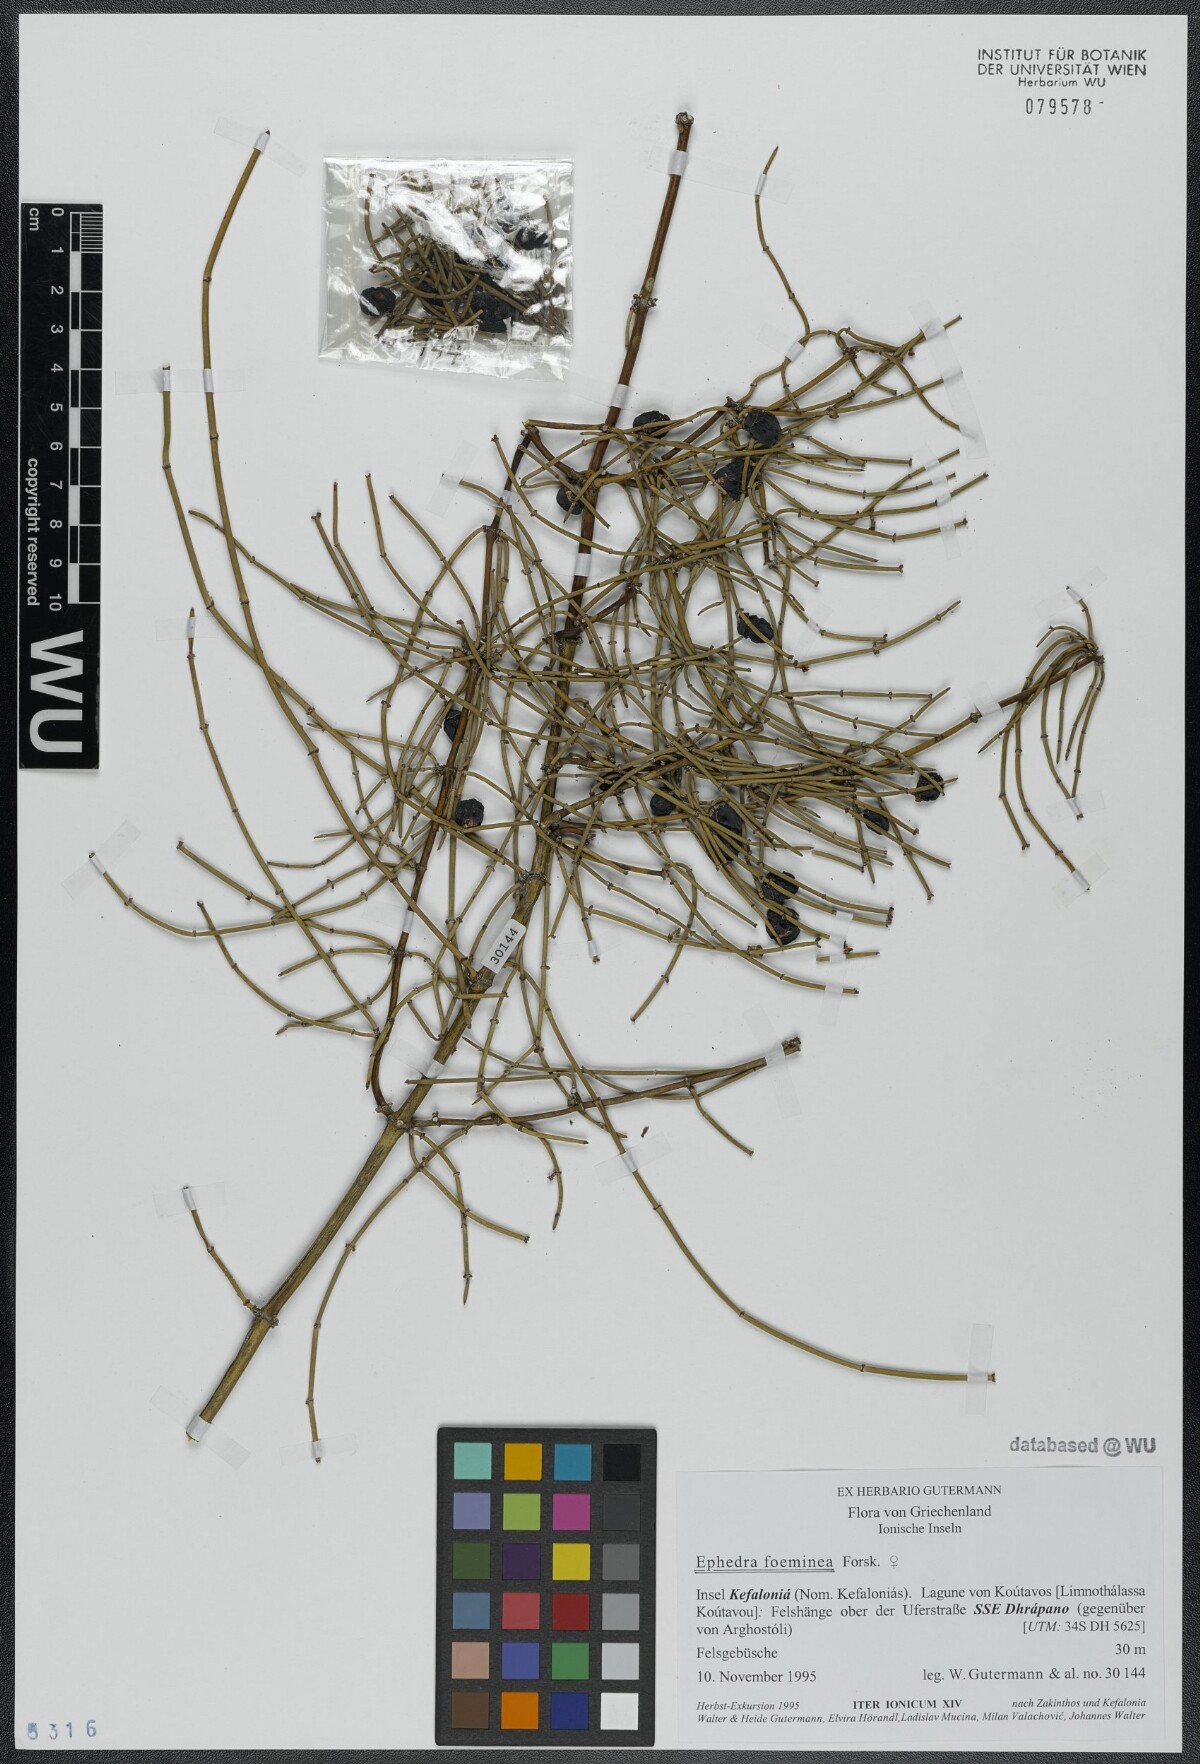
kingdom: Plantae
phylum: Tracheophyta
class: Gnetopsida
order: Ephedrales
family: Ephedraceae
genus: Ephedra
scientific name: Ephedra foeminea
